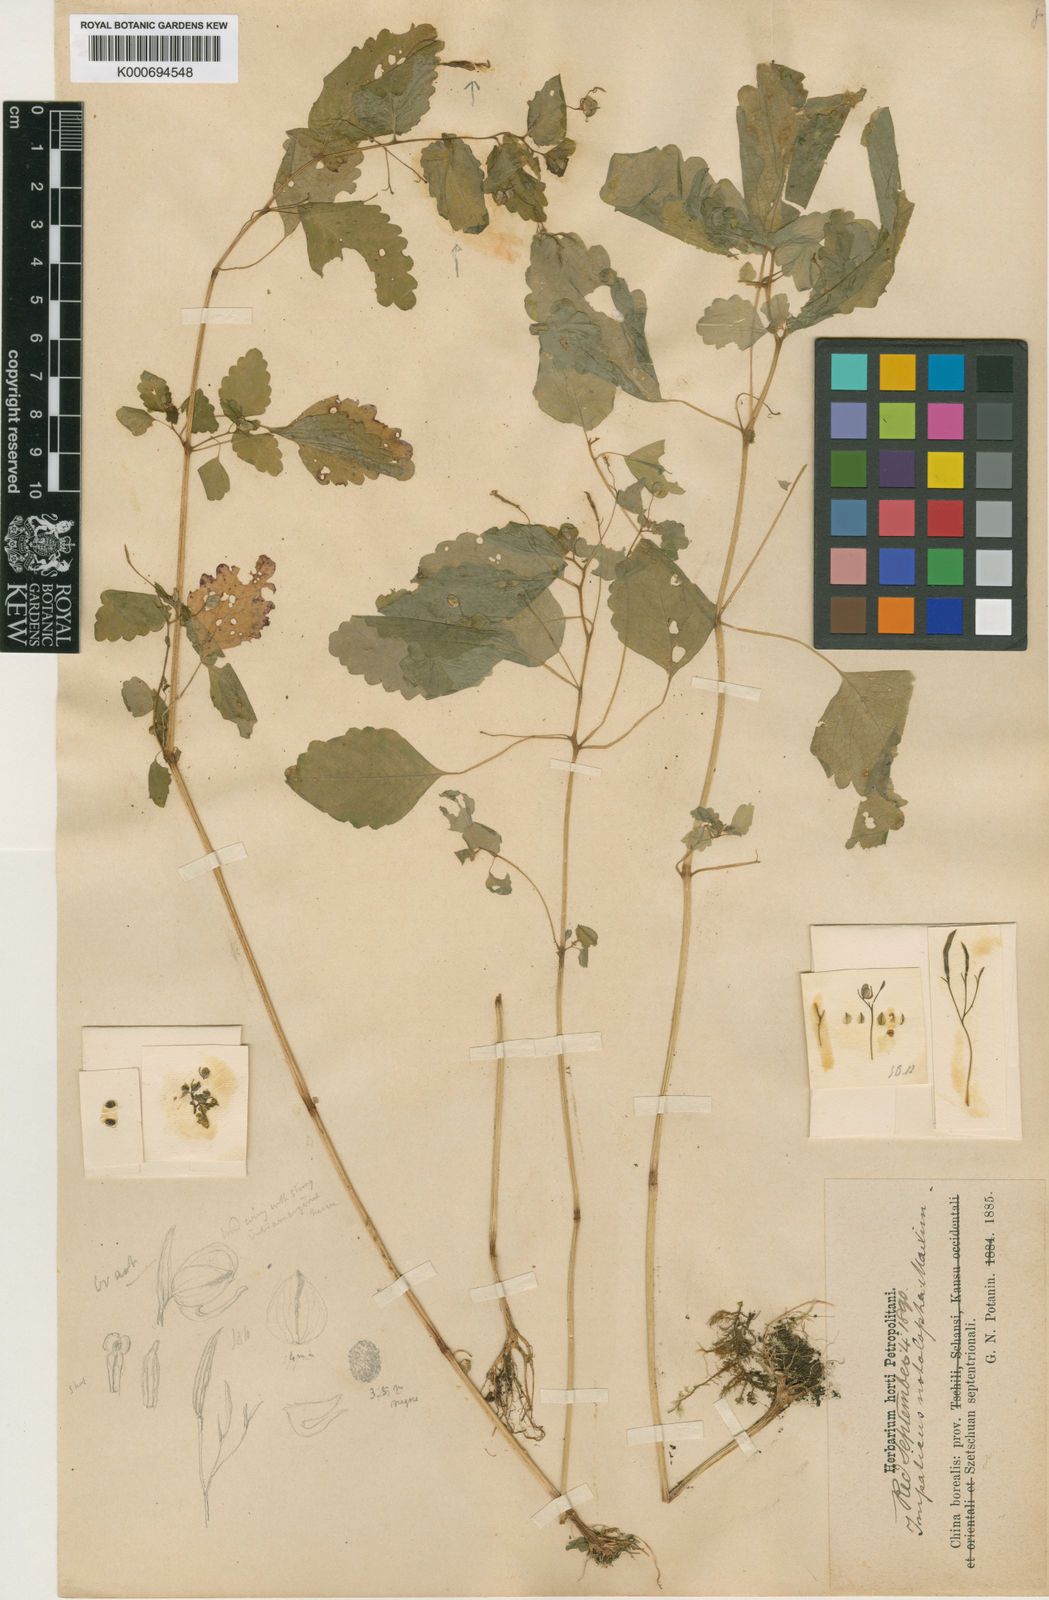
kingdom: Plantae
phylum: Tracheophyta
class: Magnoliopsida
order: Ericales
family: Balsaminaceae
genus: Impatiens
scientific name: Impatiens notolopha
